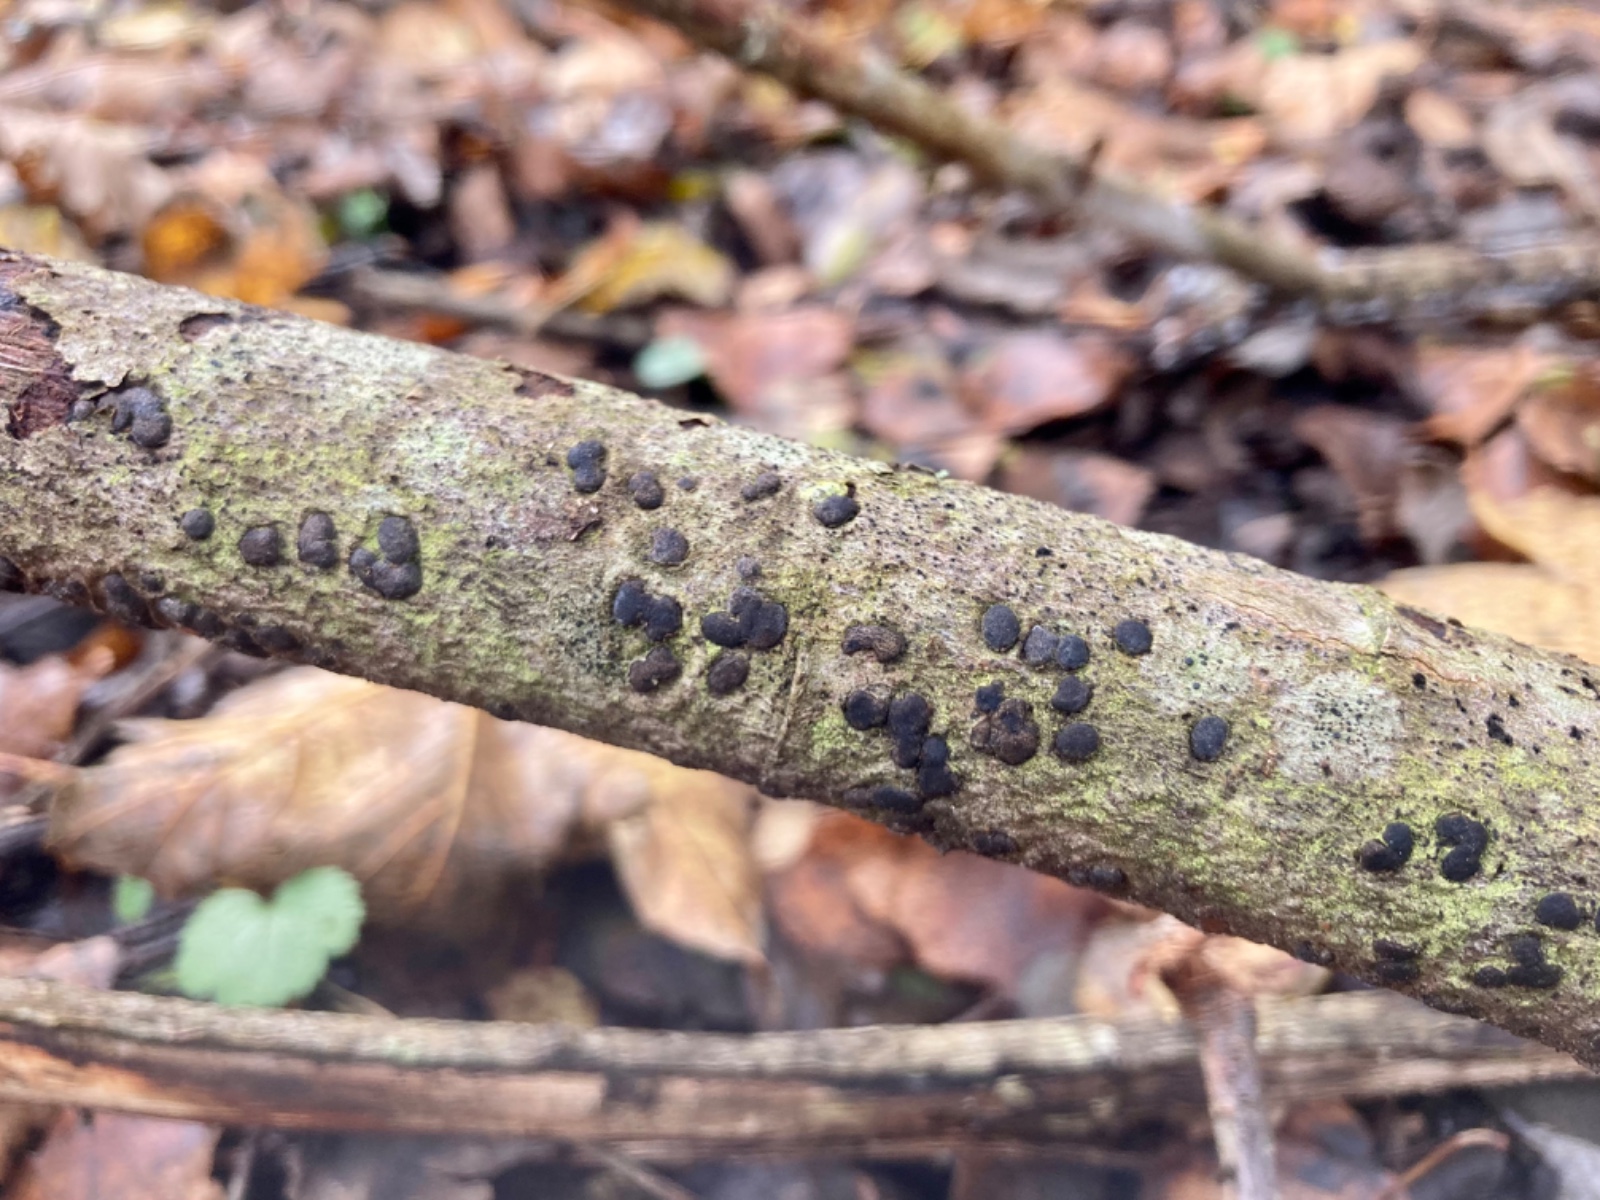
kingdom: Fungi
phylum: Ascomycota
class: Sordariomycetes
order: Xylariales
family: Diatrypaceae
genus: Diatrype
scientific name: Diatrype bullata
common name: pile-kulskorpe
